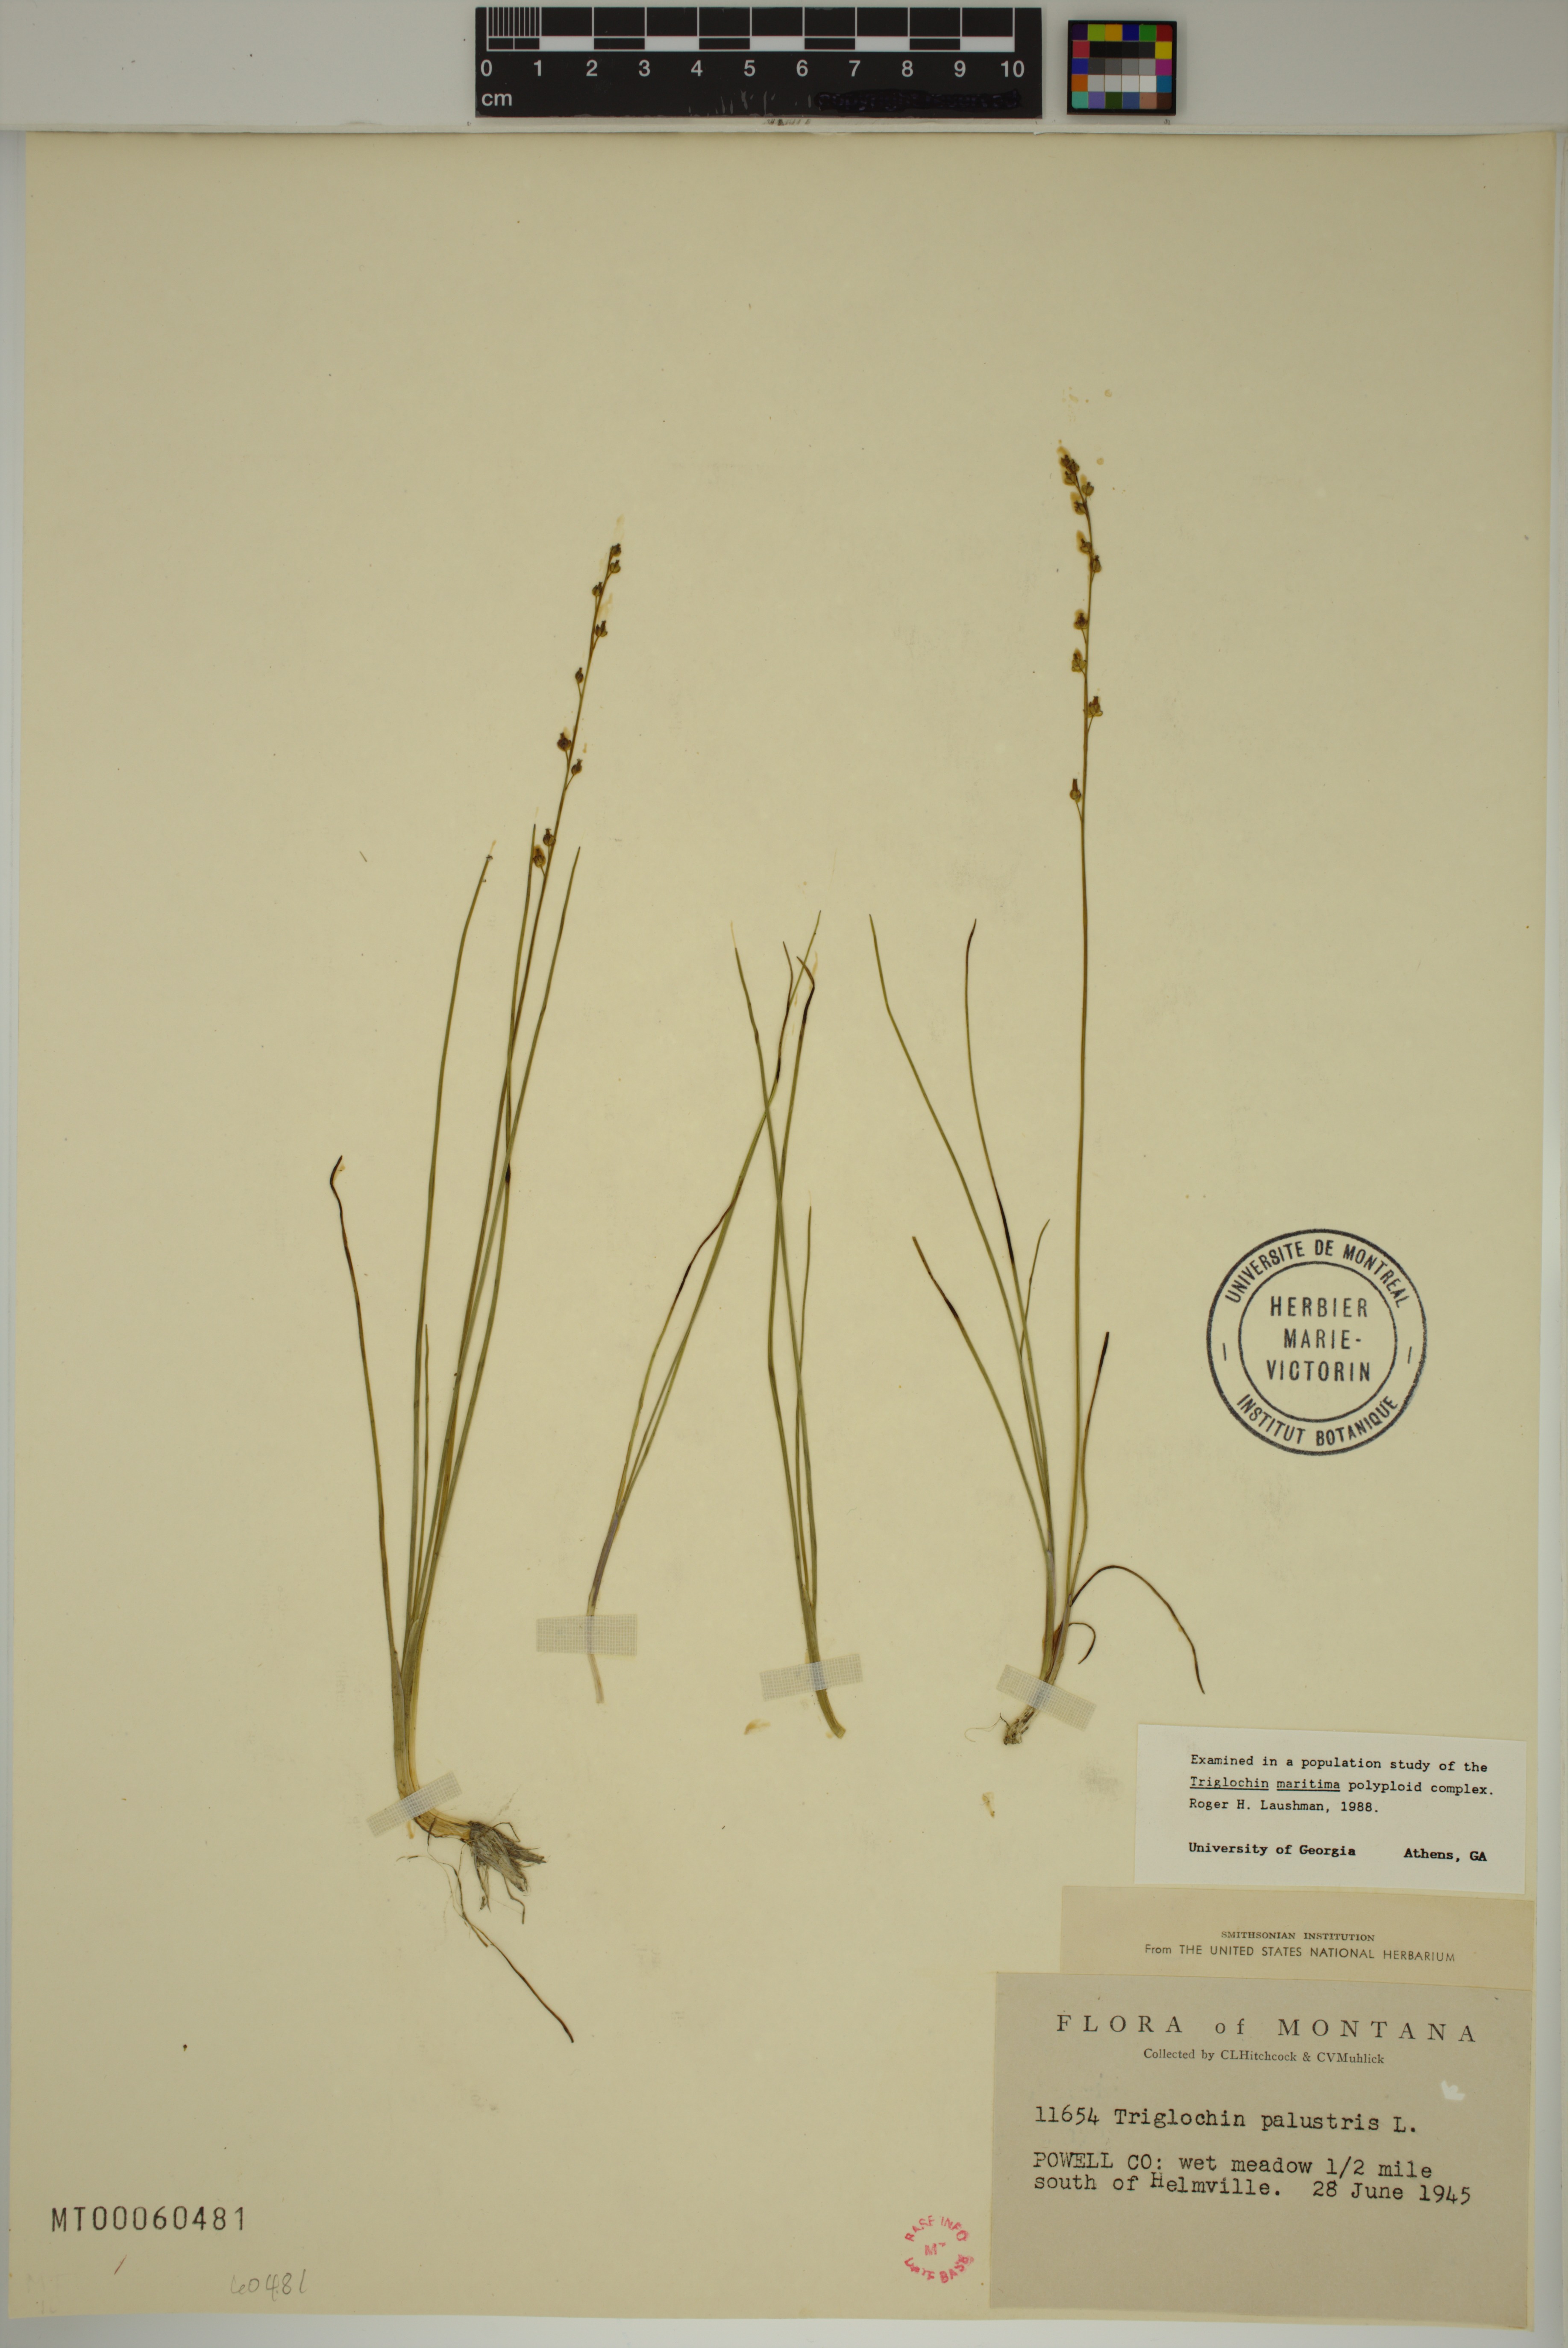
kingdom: Plantae
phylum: Tracheophyta
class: Liliopsida
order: Alismatales
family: Juncaginaceae
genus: Triglochin
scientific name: Triglochin palustris
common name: Marsh arrowgrass
